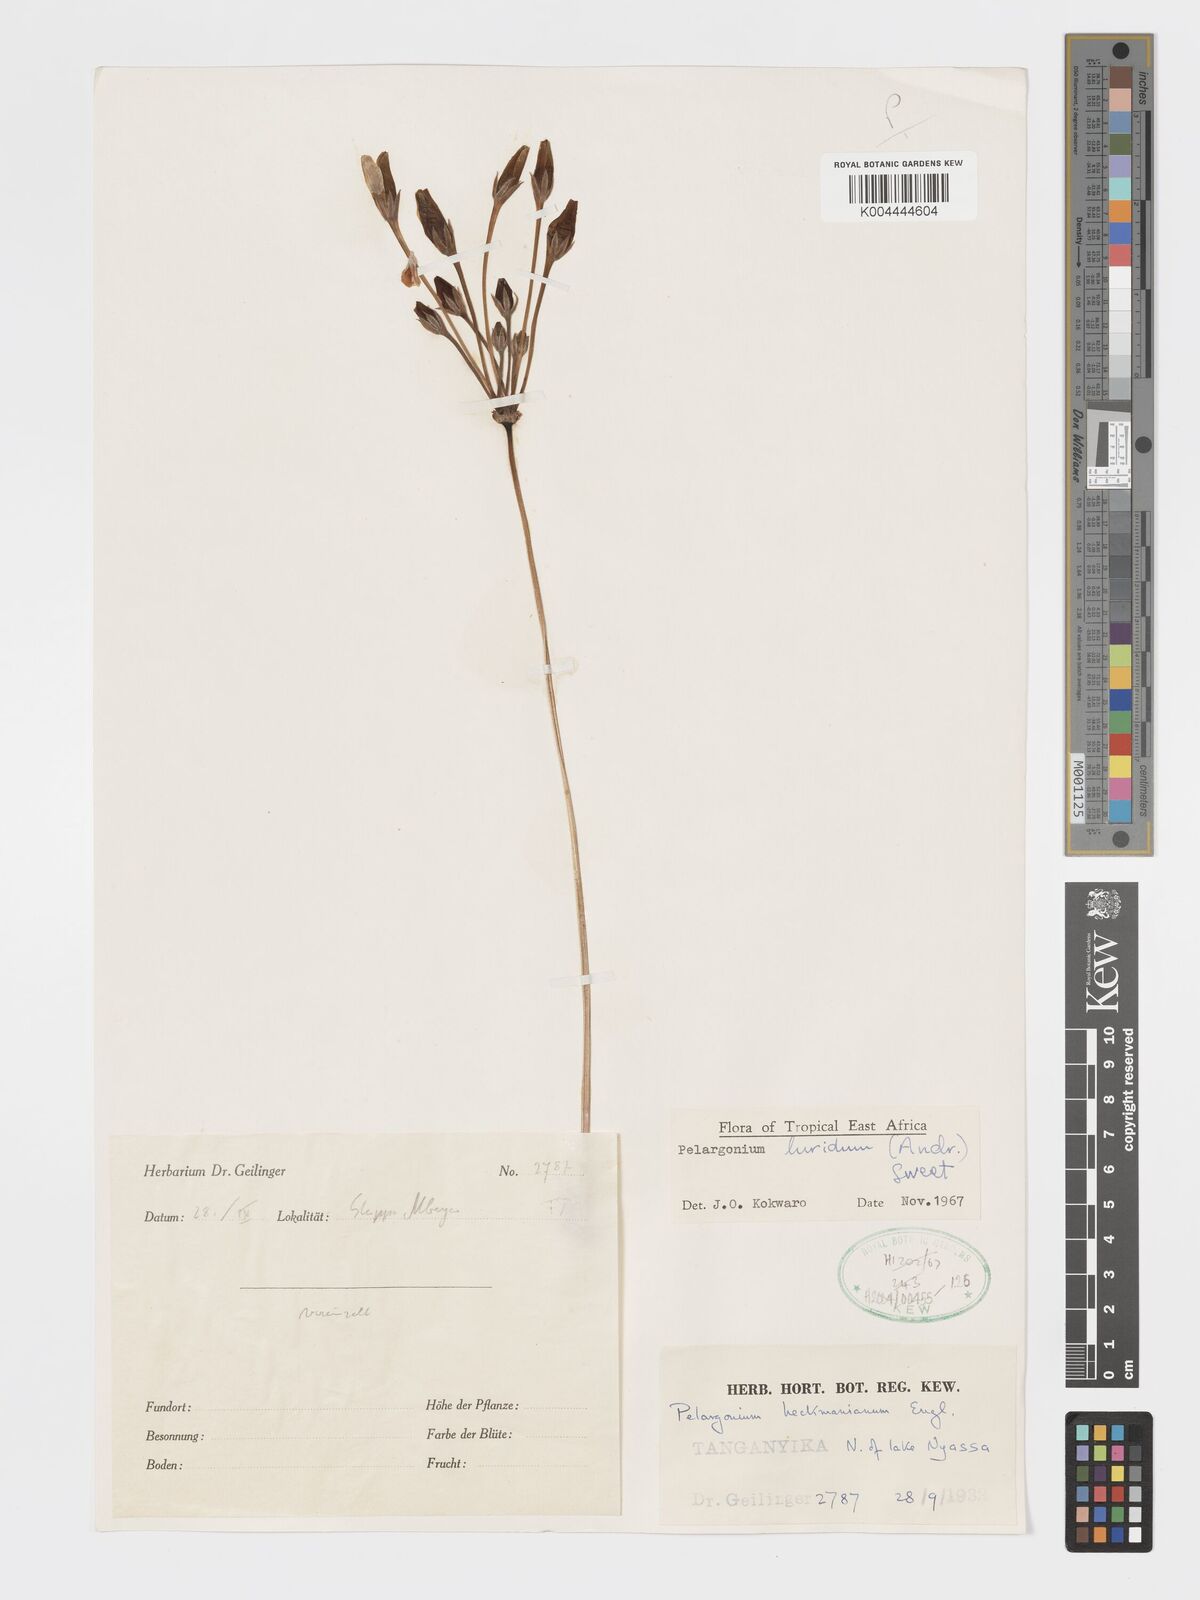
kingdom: Plantae
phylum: Tracheophyta
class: Magnoliopsida
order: Geraniales
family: Geraniaceae
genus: Pelargonium
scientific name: Pelargonium luridum
